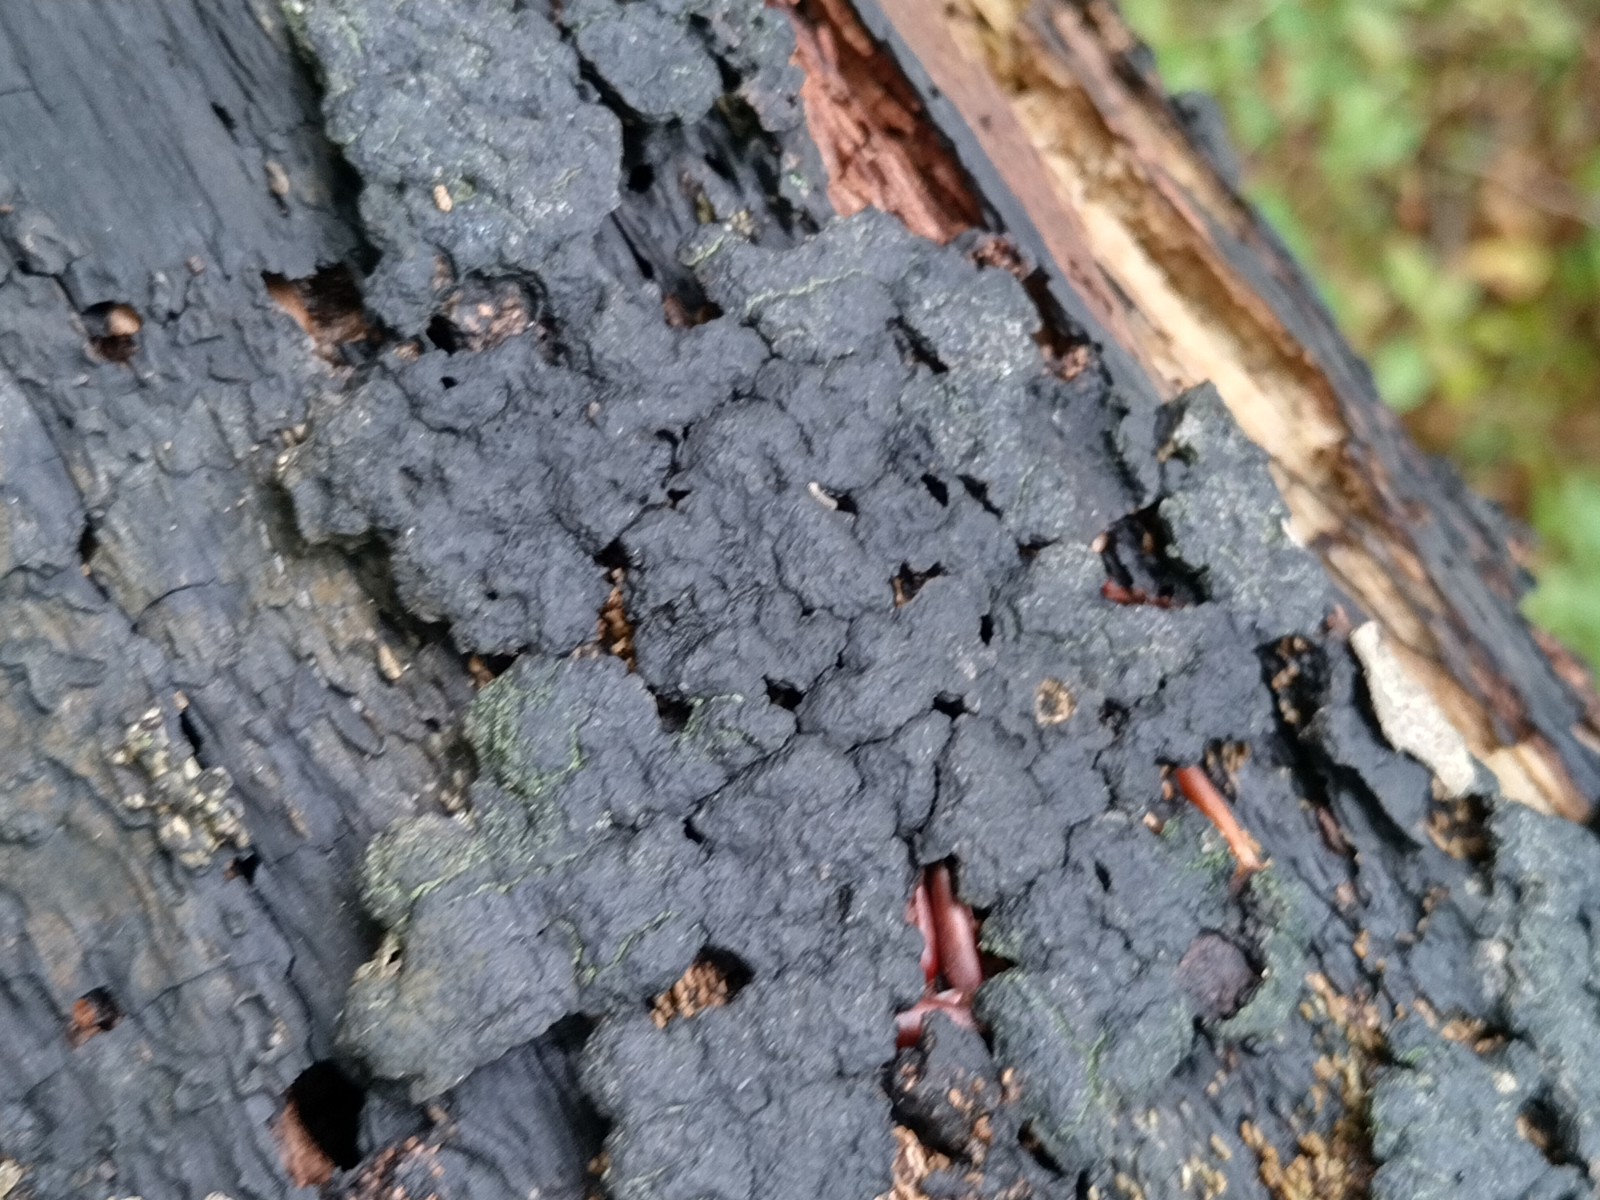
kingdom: Fungi
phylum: Ascomycota
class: Sordariomycetes
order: Xylariales
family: Hypoxylaceae
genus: Jackrogersella
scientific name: Jackrogersella cohaerens
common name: sammenflydende kulbær
